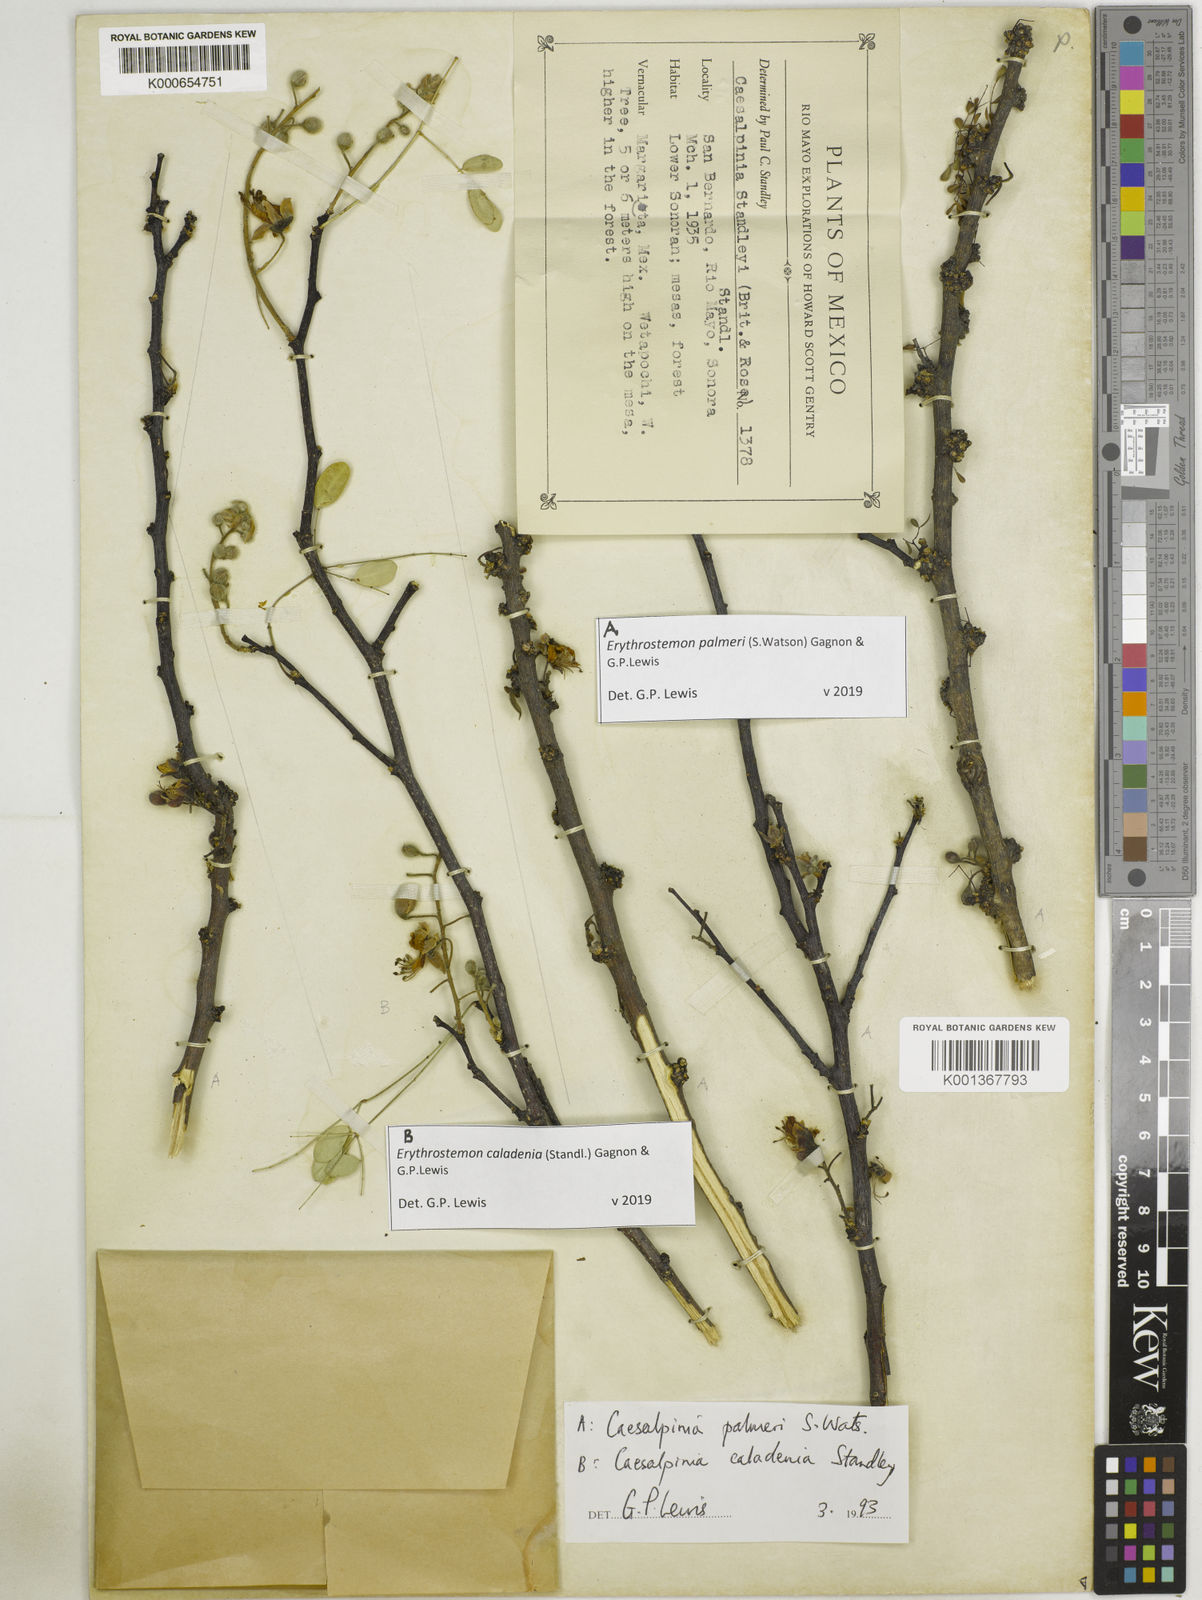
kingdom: Plantae
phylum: Tracheophyta
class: Magnoliopsida
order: Fabales
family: Fabaceae
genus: Erythrostemon
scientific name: Erythrostemon caladenia
